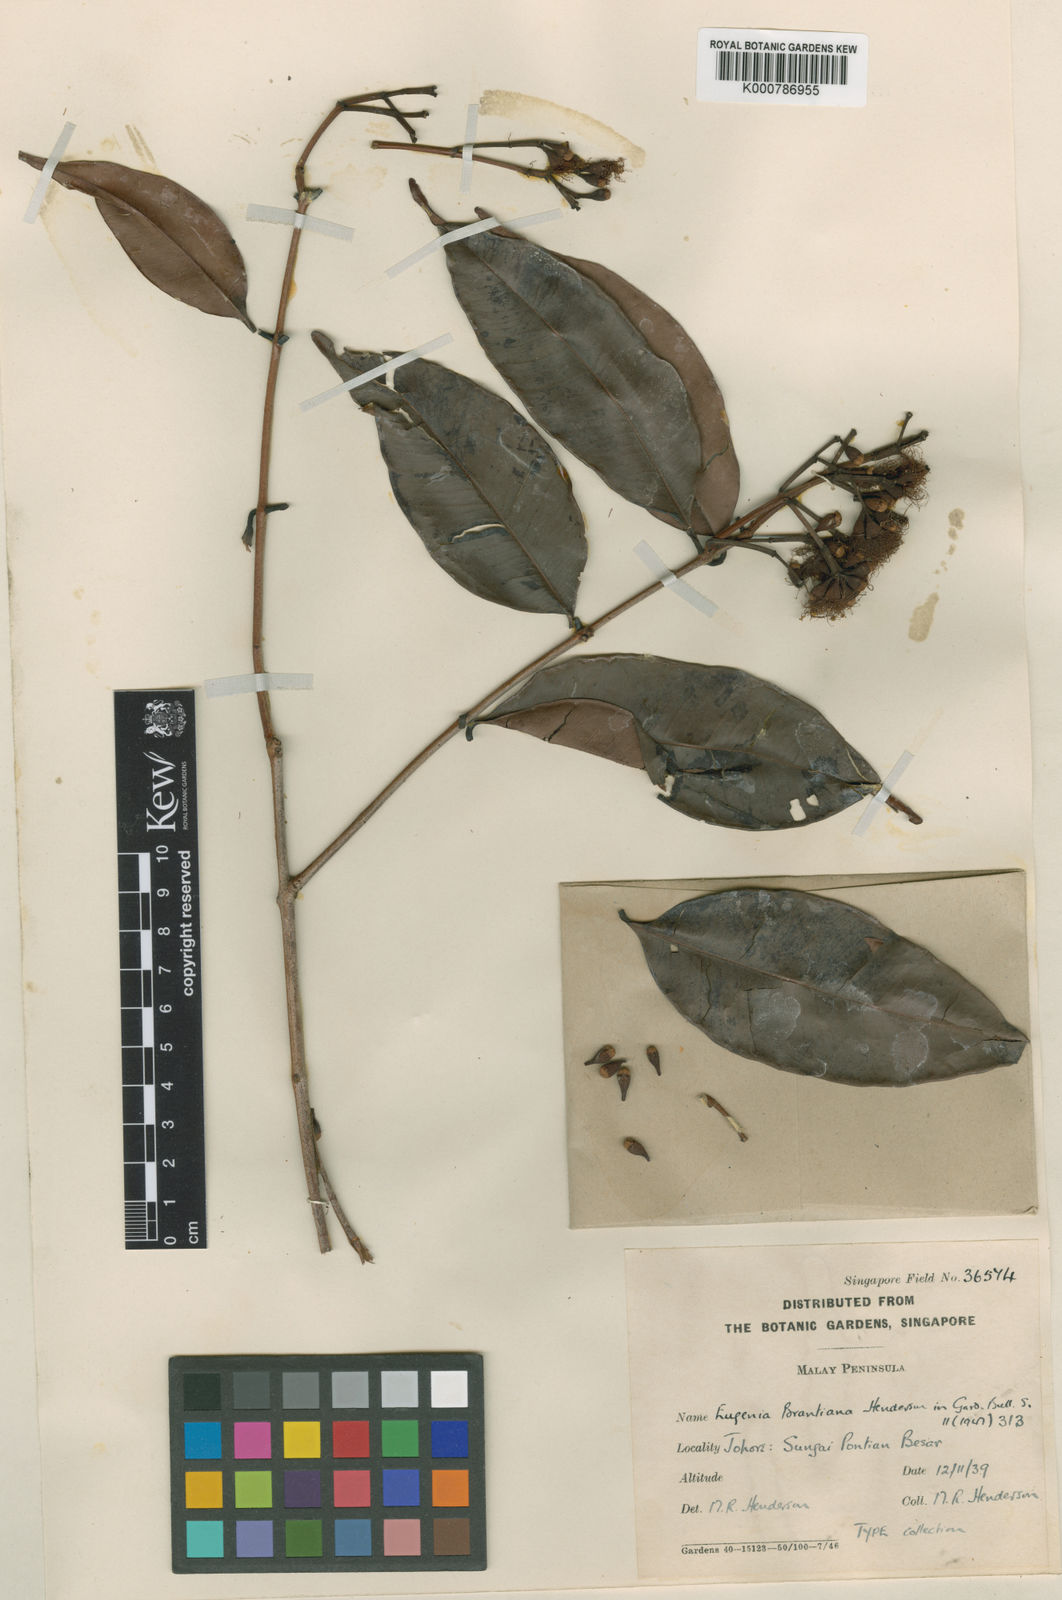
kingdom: Plantae
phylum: Tracheophyta
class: Magnoliopsida
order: Myrtales
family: Myrtaceae
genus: Syzygium
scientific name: Syzygium
